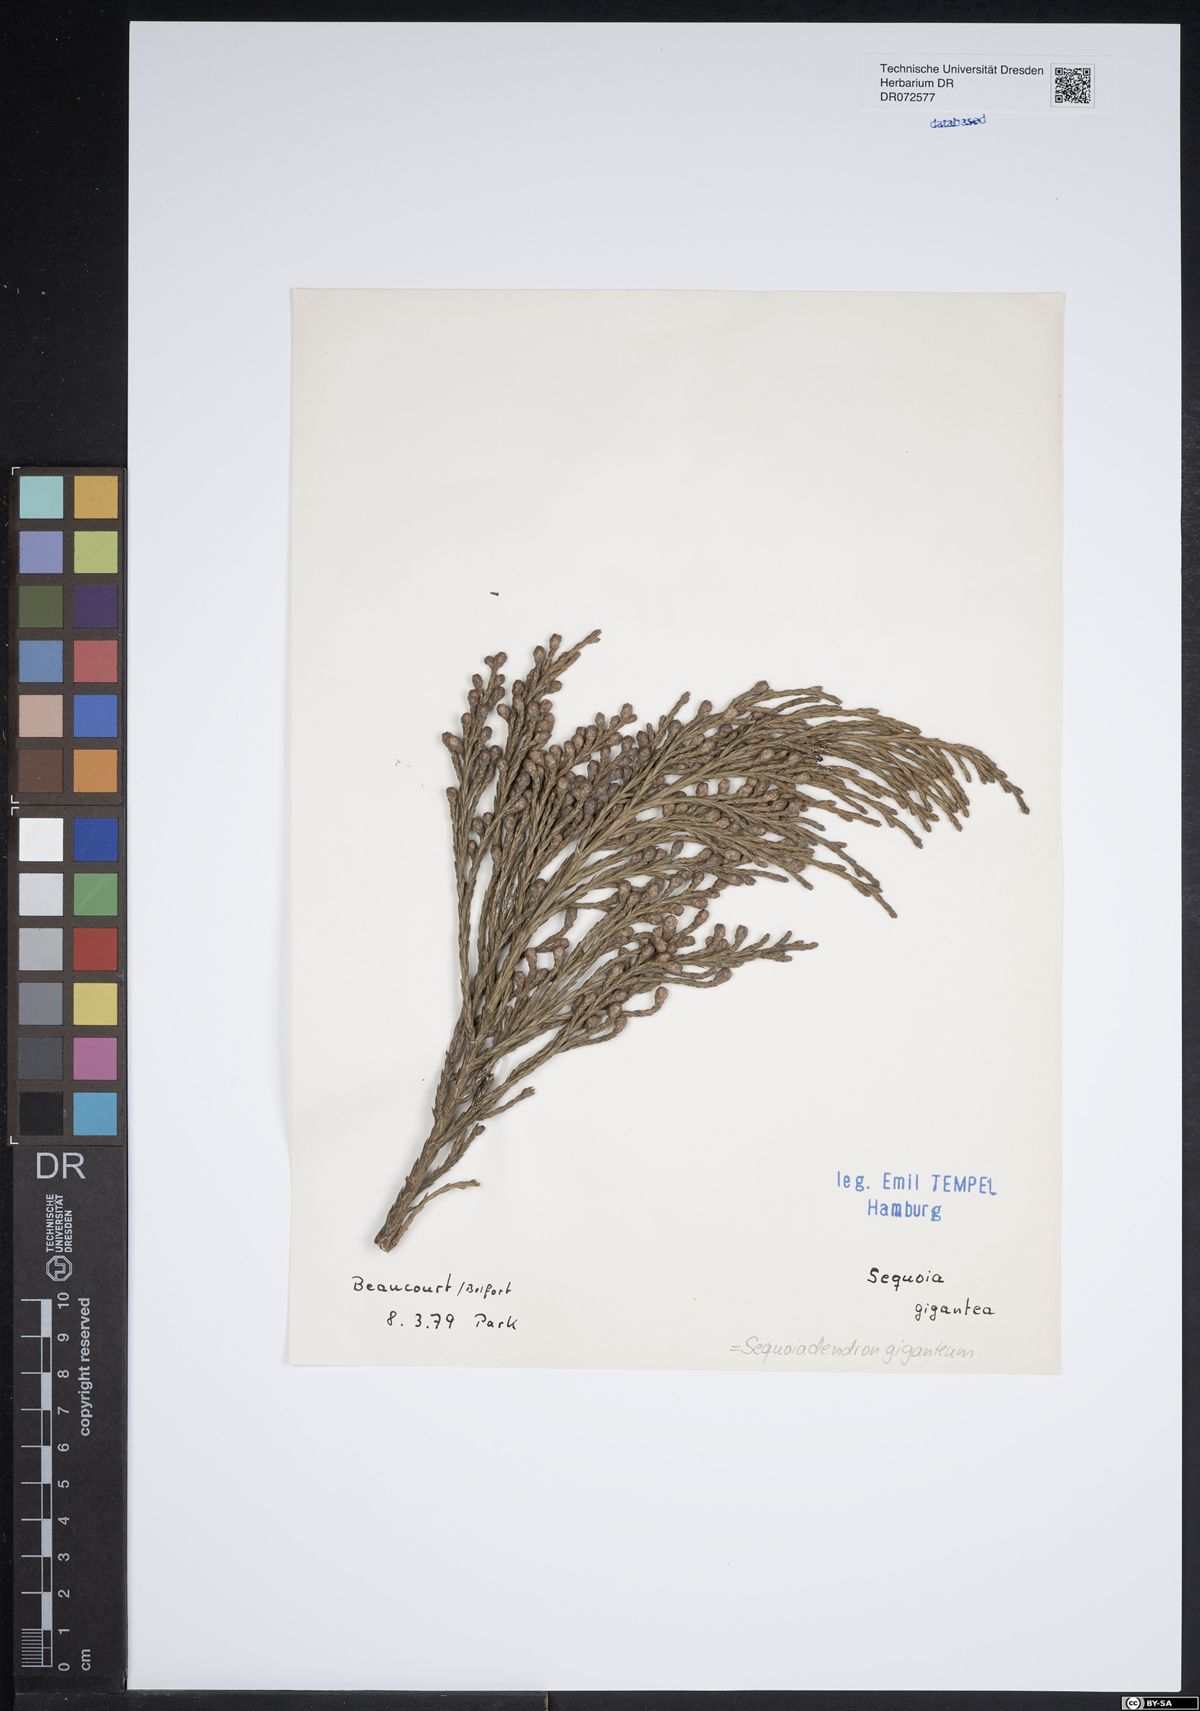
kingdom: Plantae
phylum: Tracheophyta
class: Pinopsida
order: Pinales
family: Cupressaceae
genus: Sequoiadendron
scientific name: Sequoiadendron giganteum
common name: Wellingtonia
